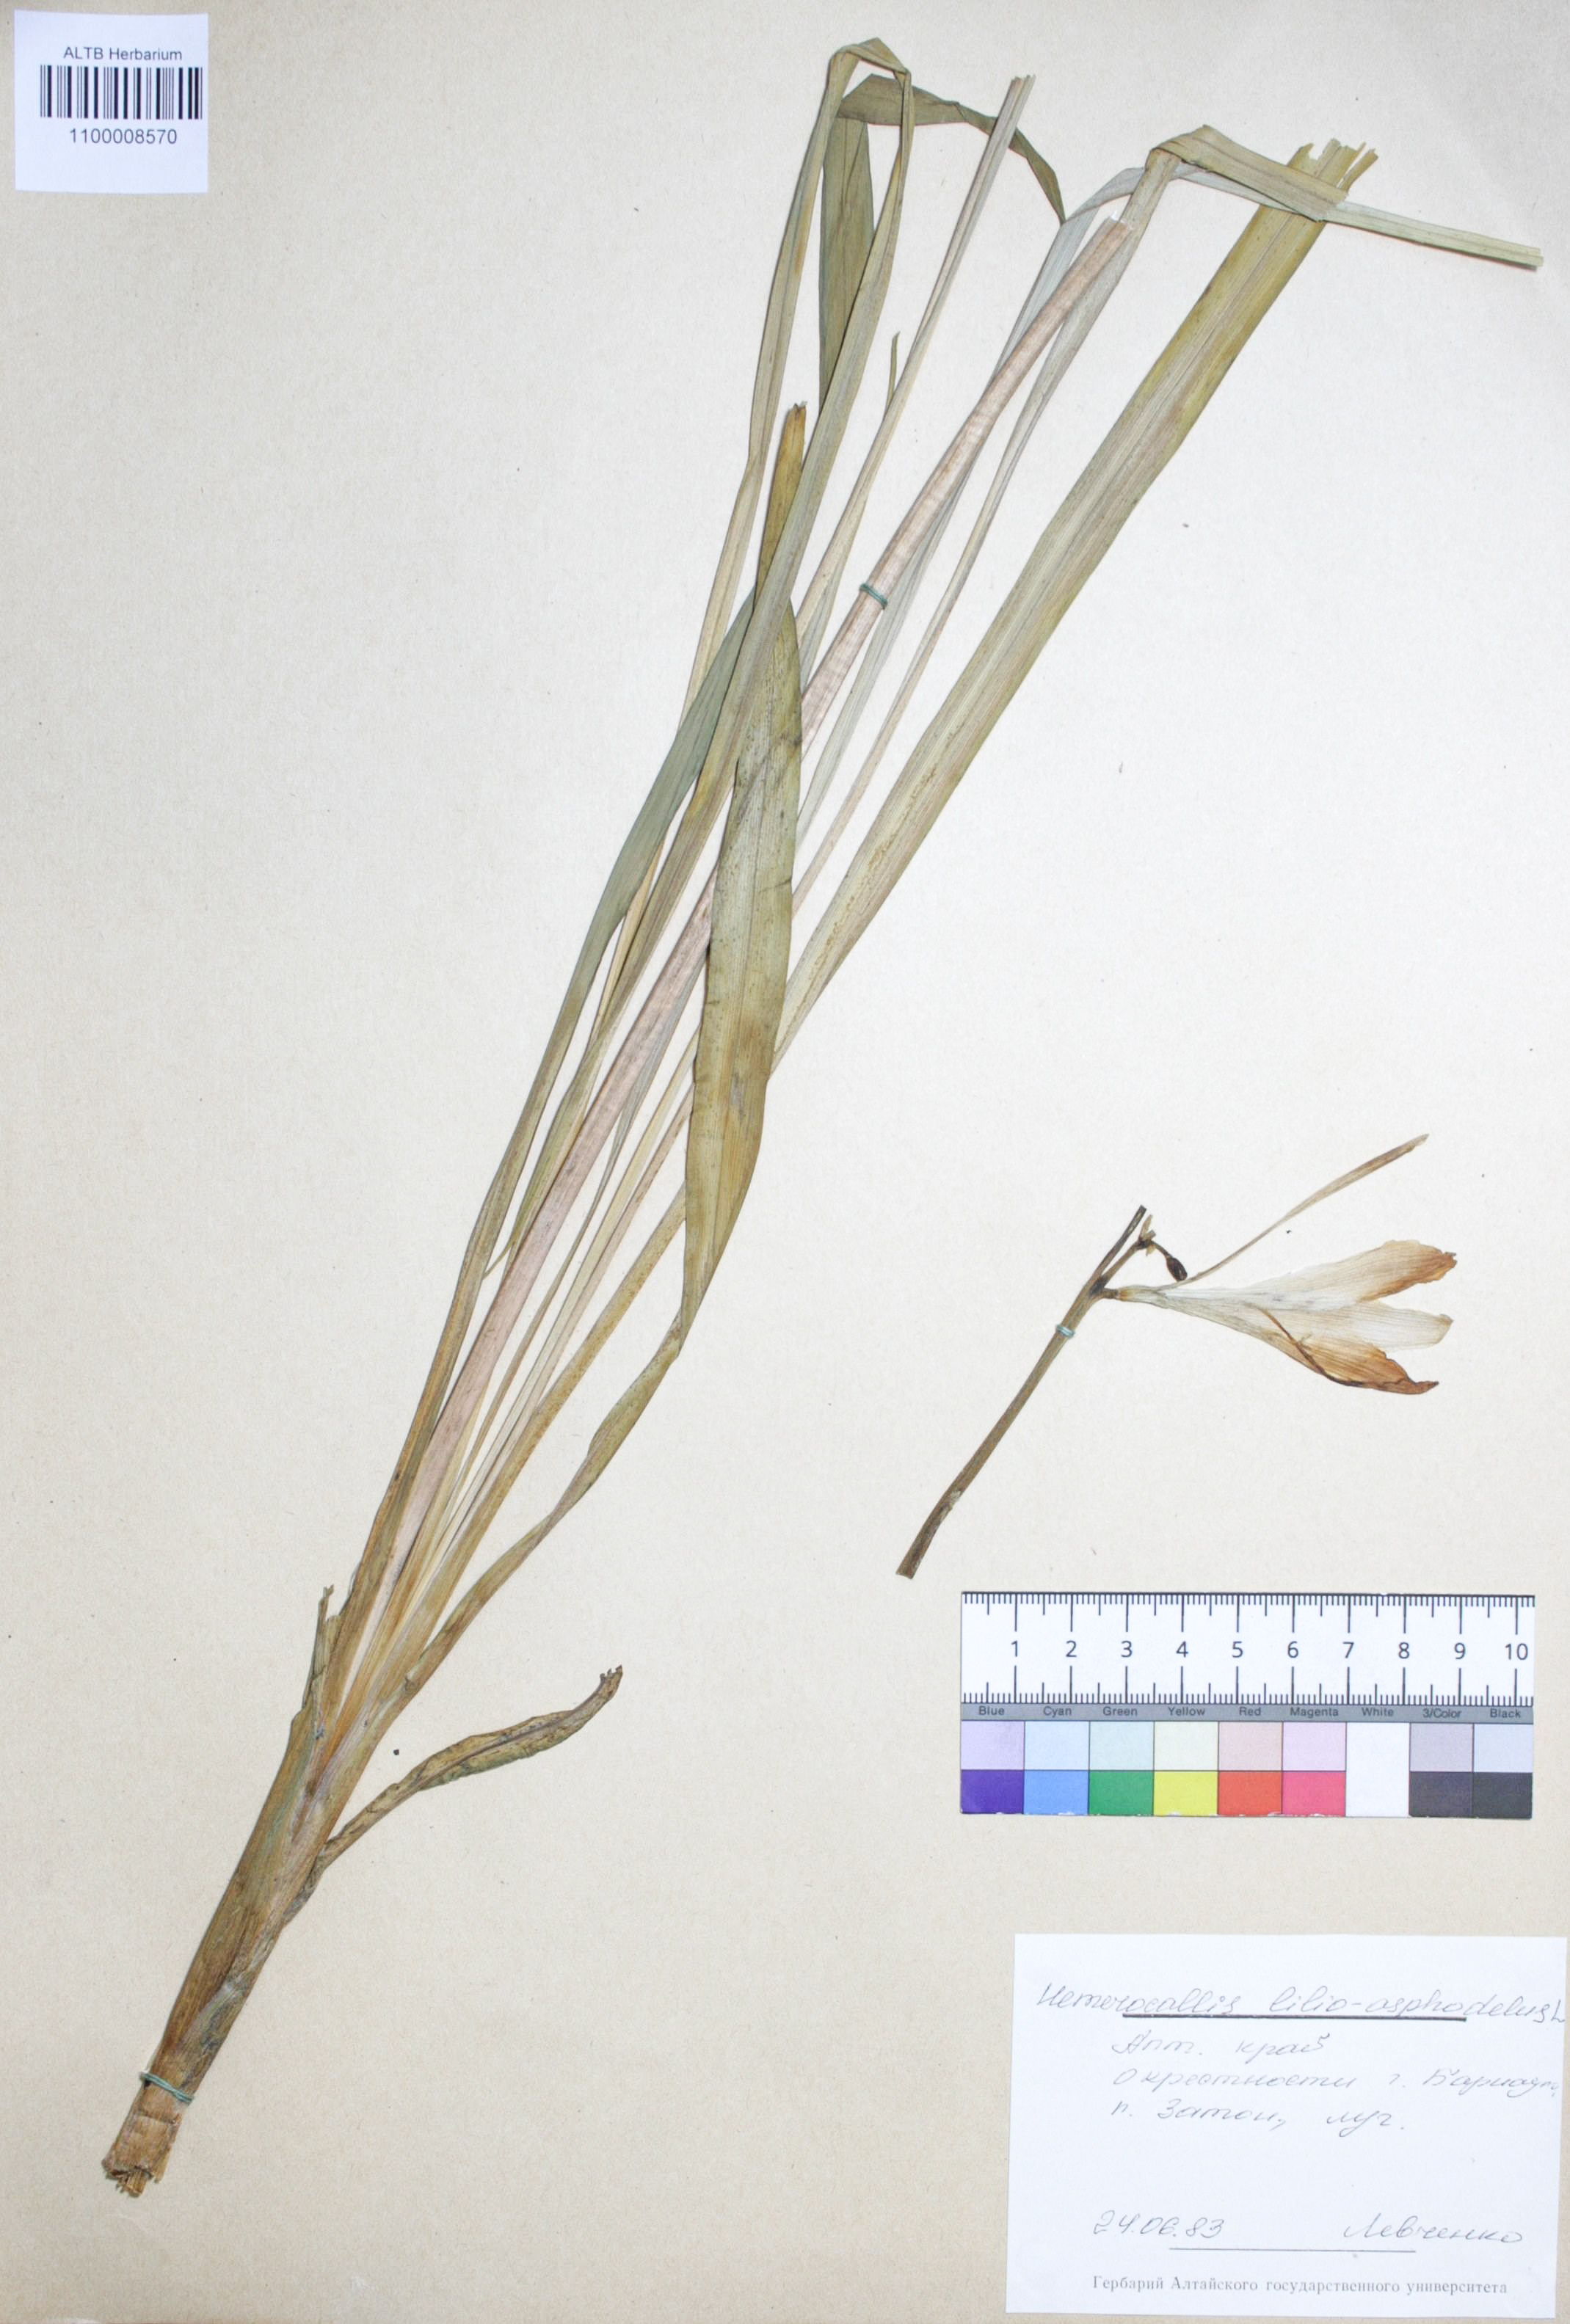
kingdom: Plantae
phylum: Tracheophyta
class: Liliopsida
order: Asparagales
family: Asphodelaceae
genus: Hemerocallis
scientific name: Hemerocallis lilioasphodelus
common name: Yellow day-lily
